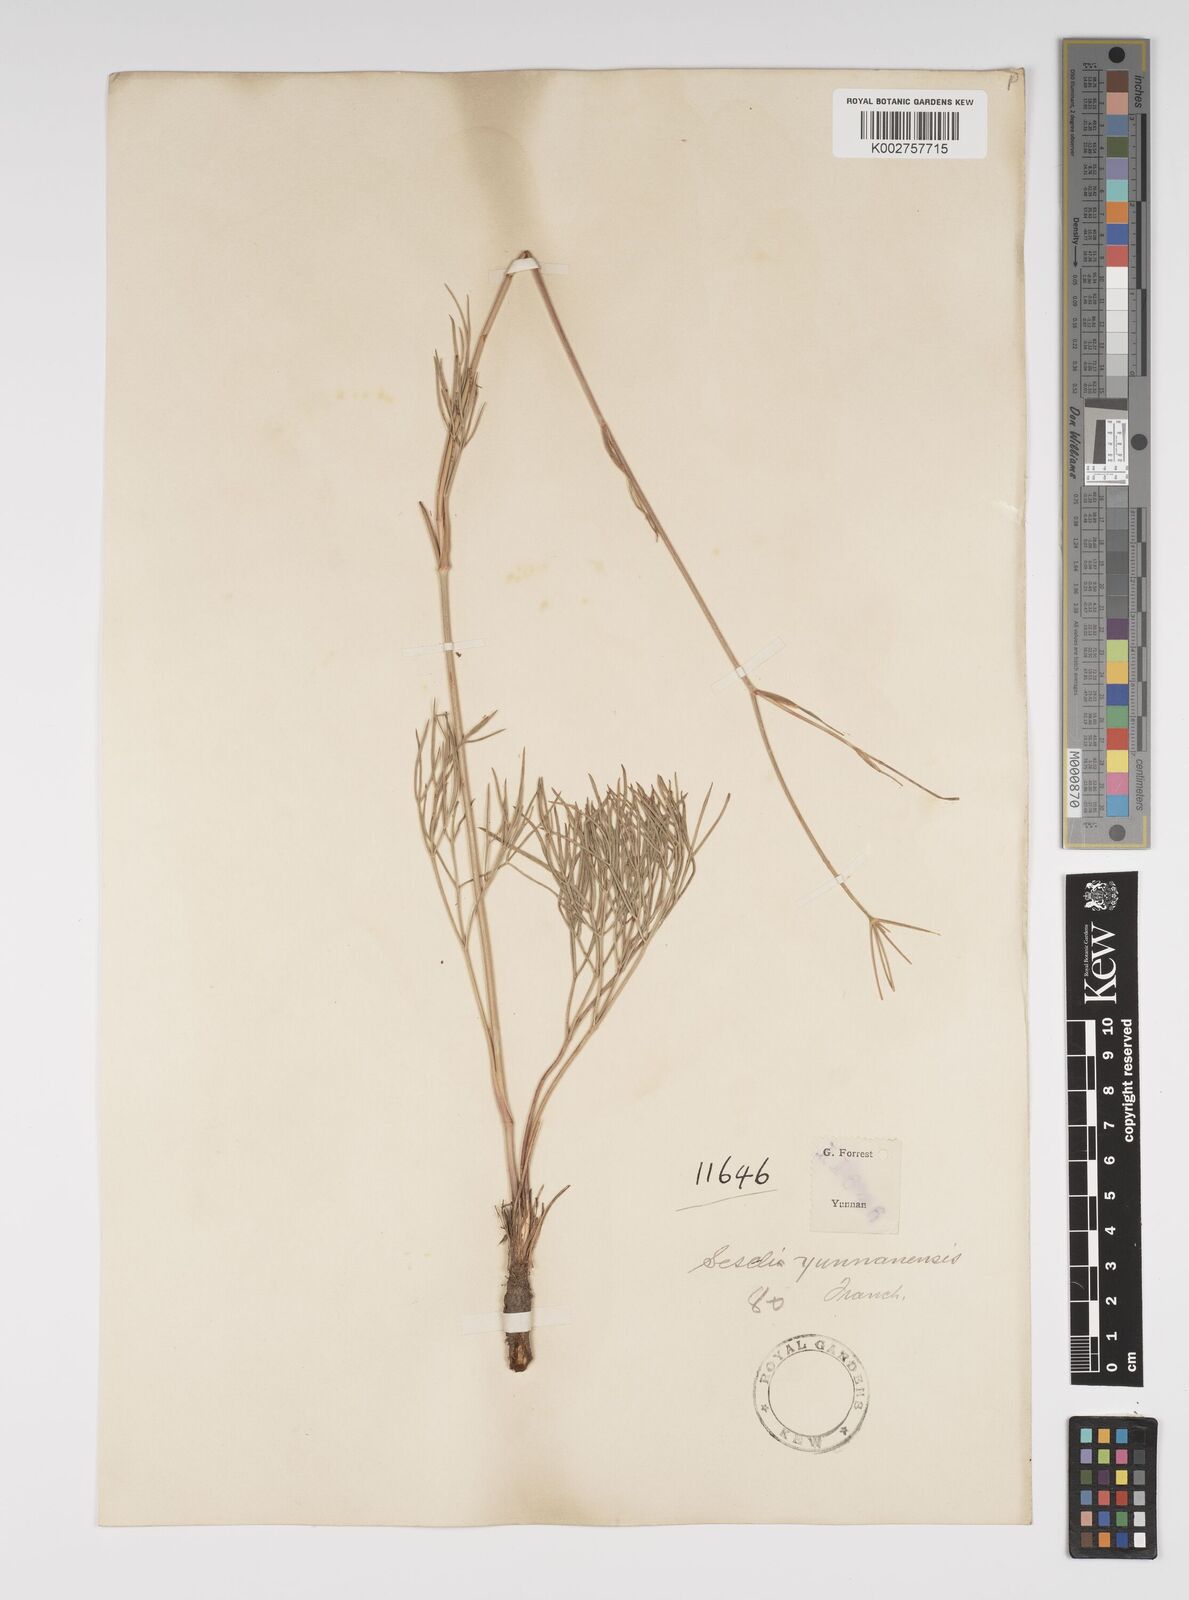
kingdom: Plantae
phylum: Tracheophyta
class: Magnoliopsida
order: Apiales
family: Apiaceae
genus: Seseli
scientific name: Seseli yunnanense
